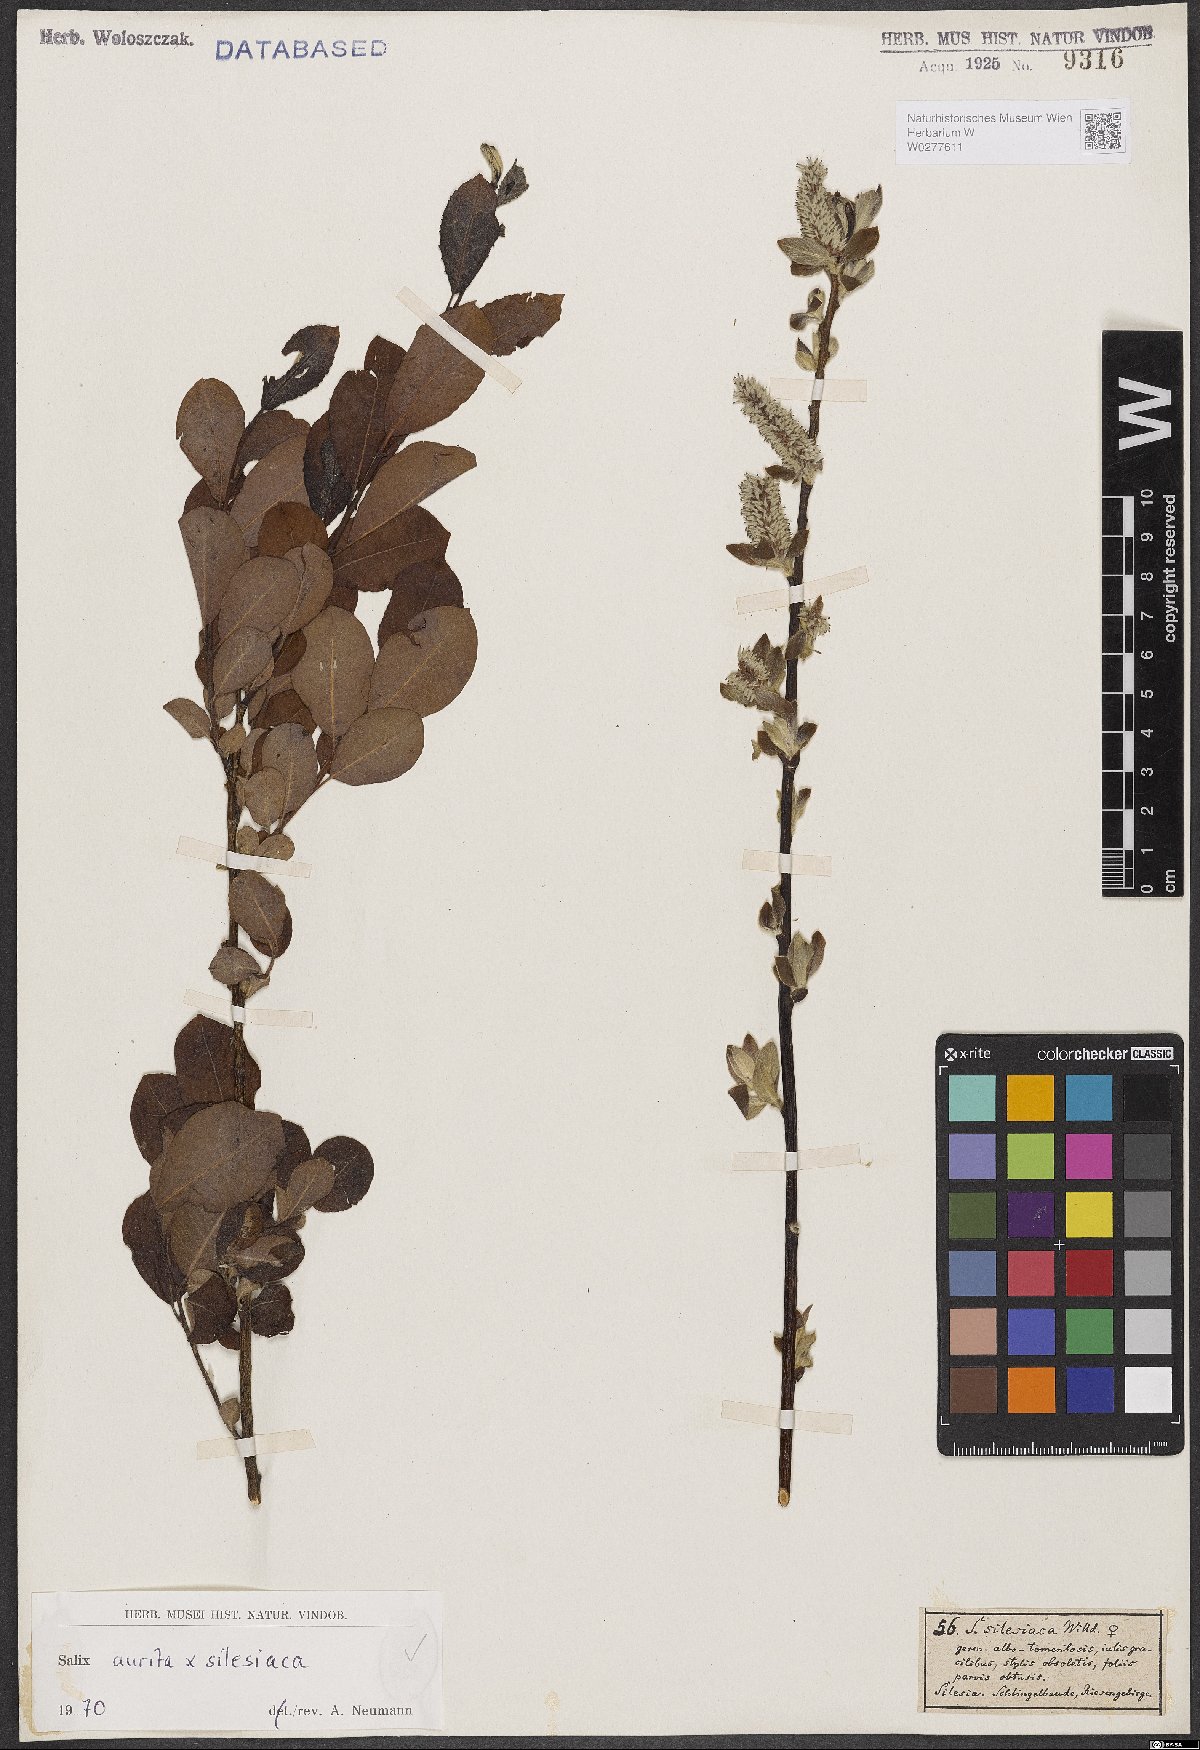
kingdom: Plantae
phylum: Tracheophyta
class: Magnoliopsida
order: Malpighiales
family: Salicaceae
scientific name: Salicaceae
